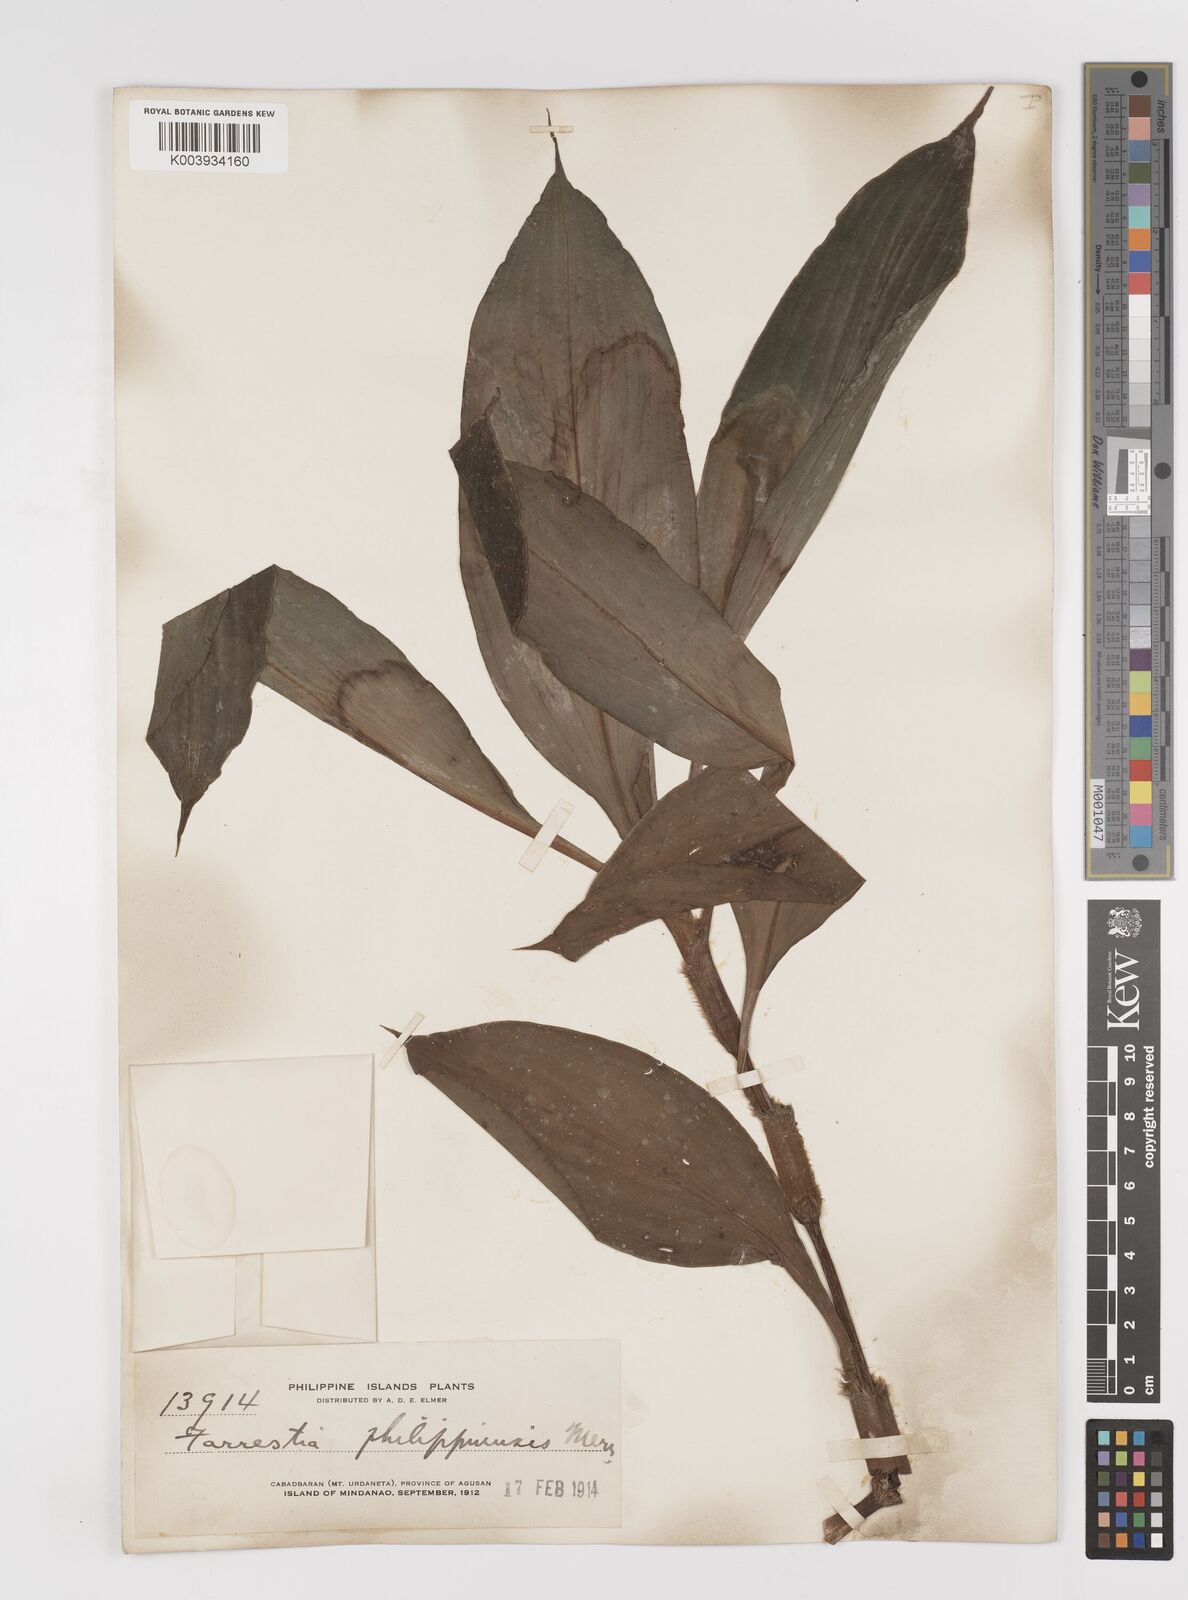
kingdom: Plantae
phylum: Tracheophyta
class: Liliopsida
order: Commelinales
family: Commelinaceae
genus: Amischotolype
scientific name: Amischotolype
